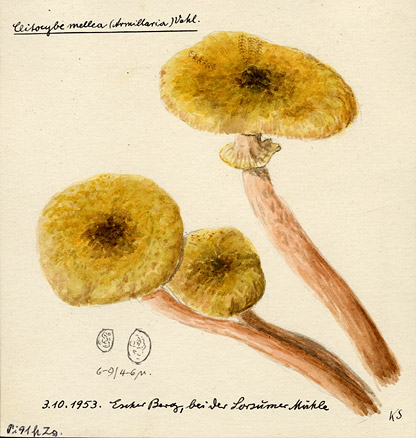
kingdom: Fungi
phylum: Basidiomycota
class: Agaricomycetes
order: Agaricales
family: Physalacriaceae
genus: Armillaria
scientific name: Armillaria mellea
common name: Honey fungus
